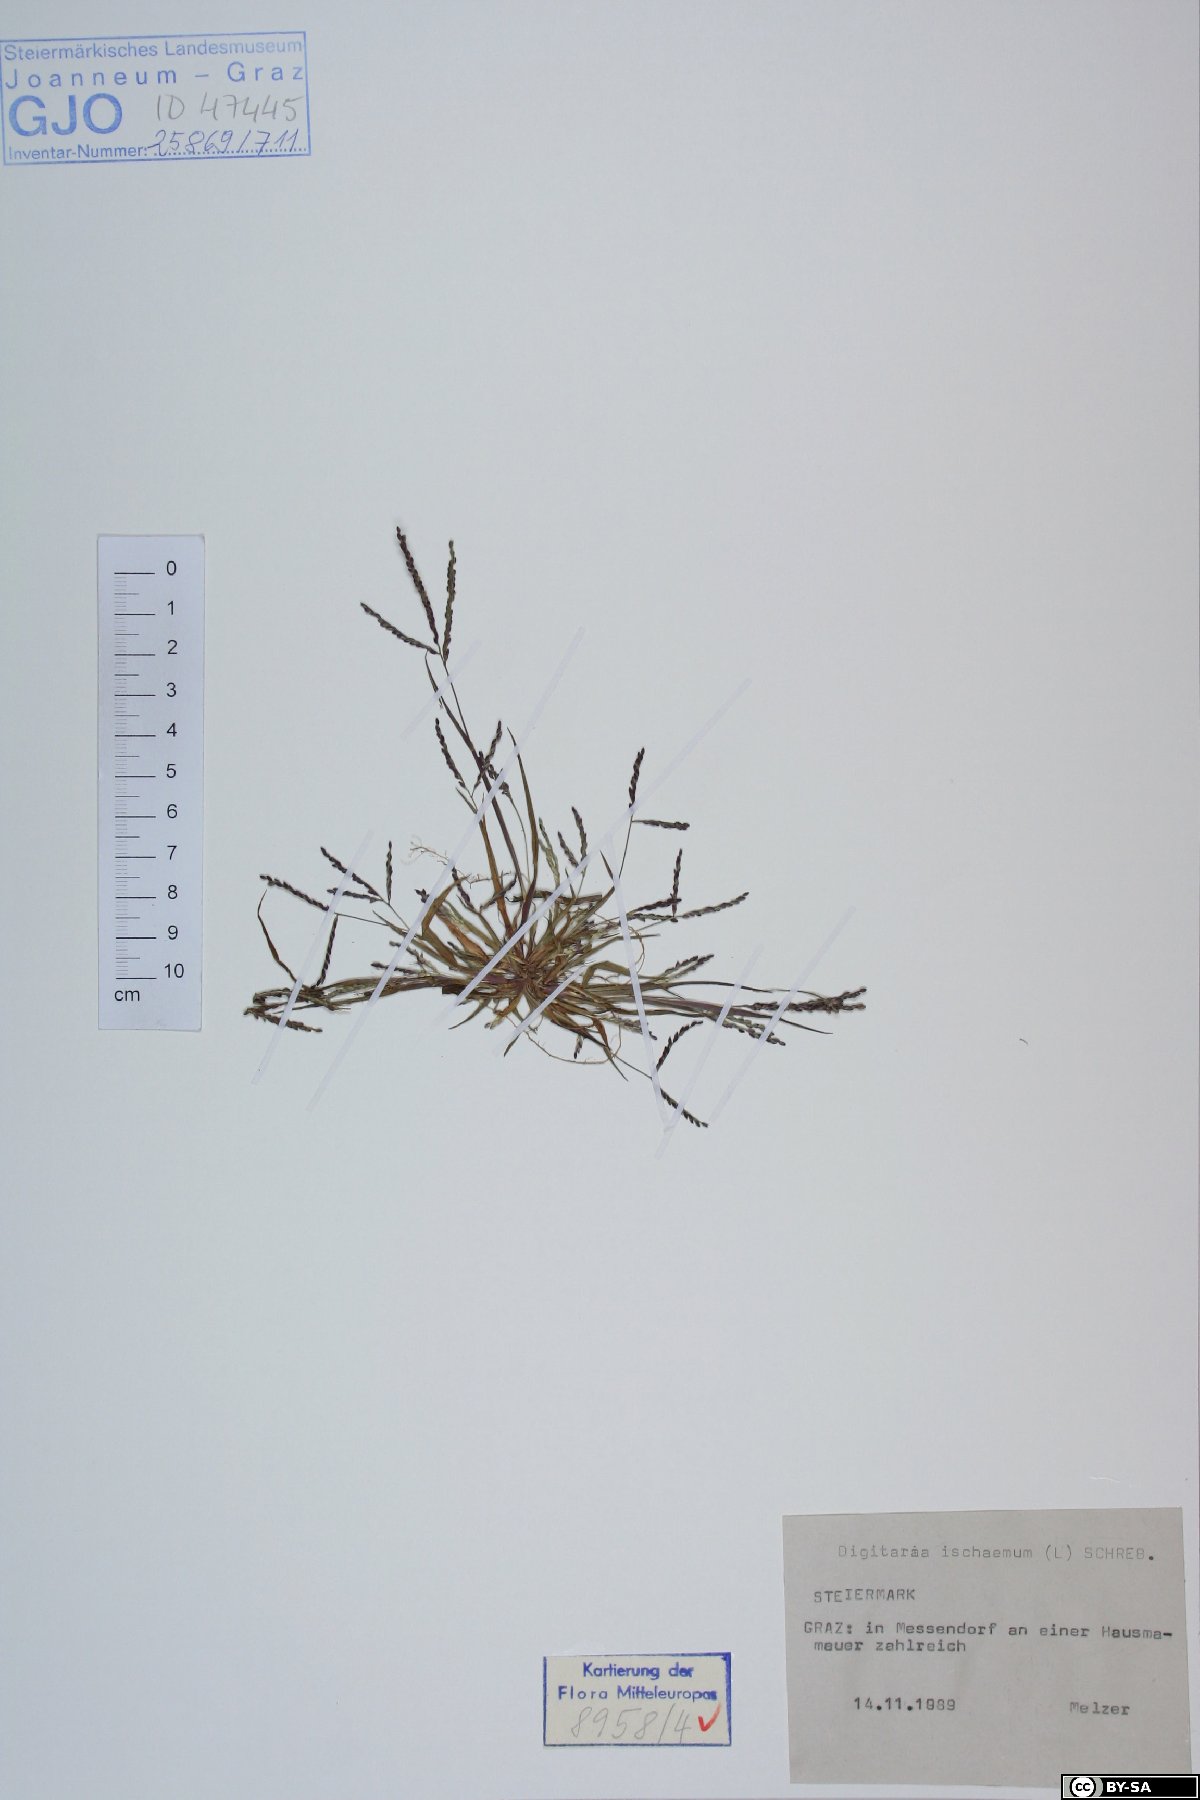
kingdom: Plantae
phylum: Tracheophyta
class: Liliopsida
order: Poales
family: Poaceae
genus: Digitaria
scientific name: Digitaria ischaemum
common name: Smooth crabgrass
